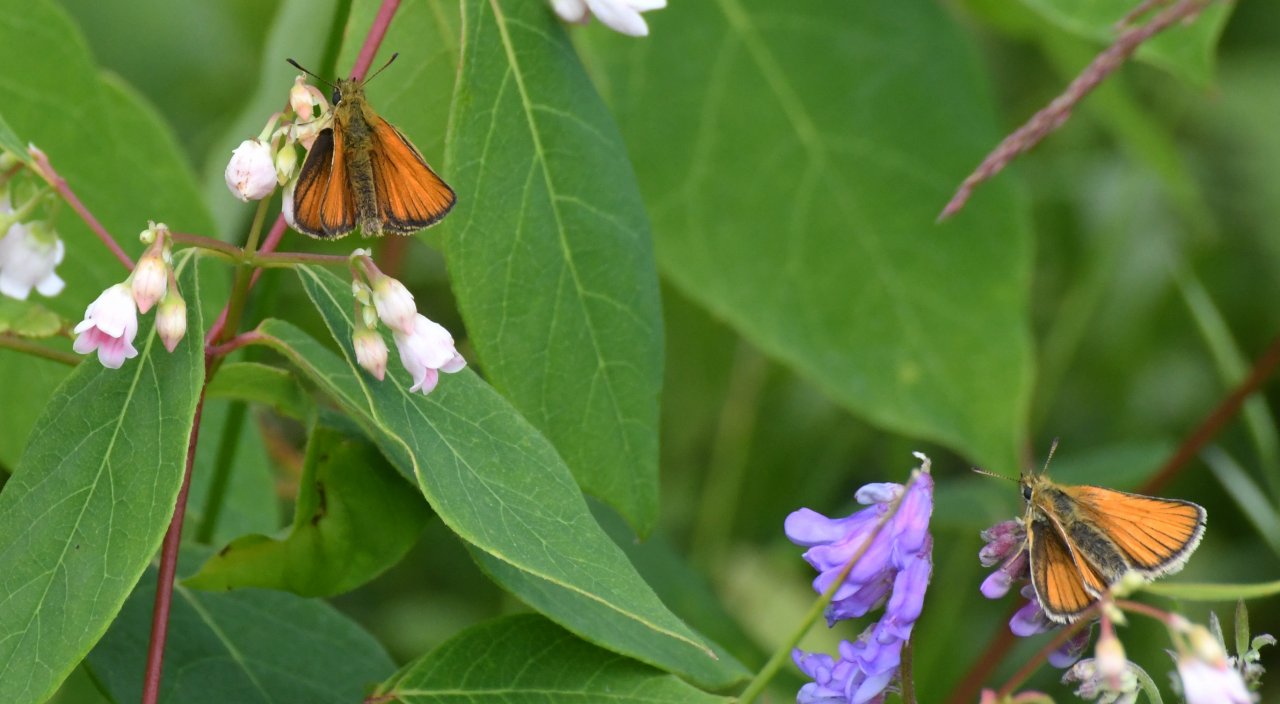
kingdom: Animalia
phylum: Arthropoda
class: Insecta
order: Lepidoptera
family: Hesperiidae
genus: Thymelicus
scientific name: Thymelicus lineola
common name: European Skipper
